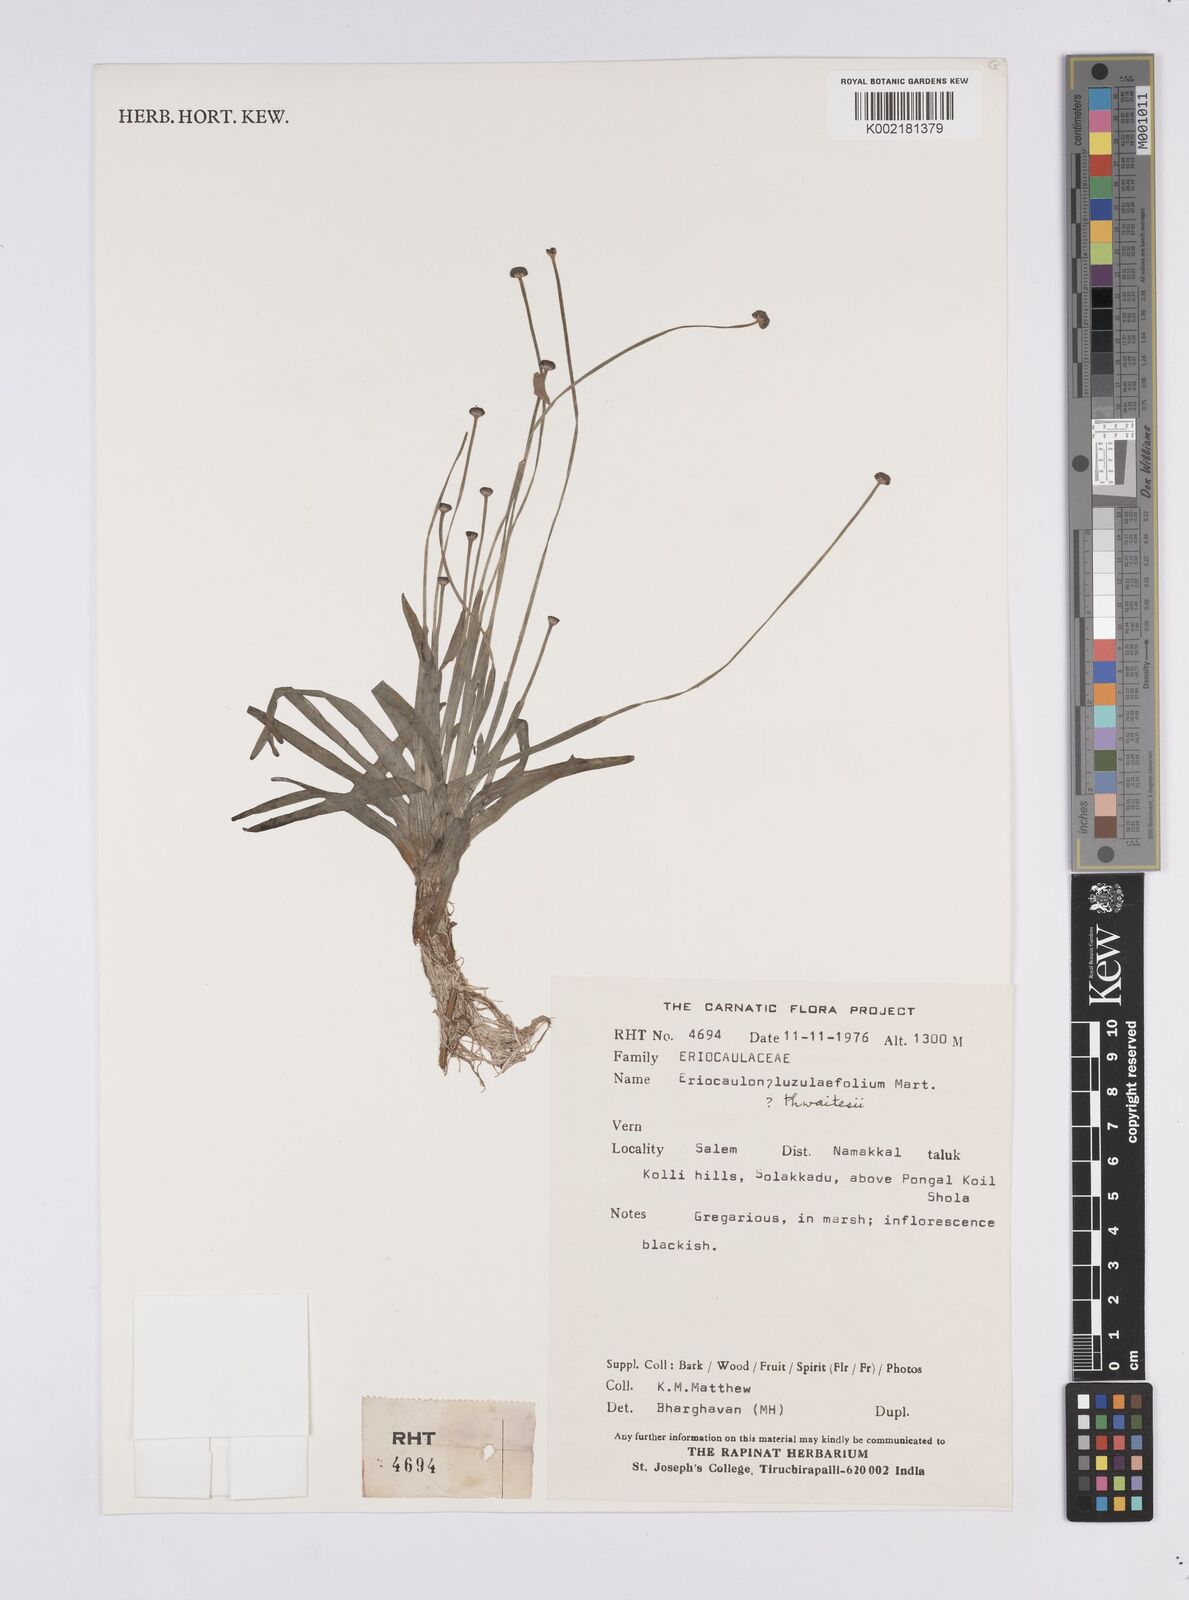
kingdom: Plantae
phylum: Tracheophyta
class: Liliopsida
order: Poales
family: Eriocaulaceae
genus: Eriocaulon
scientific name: Eriocaulon nepalense
